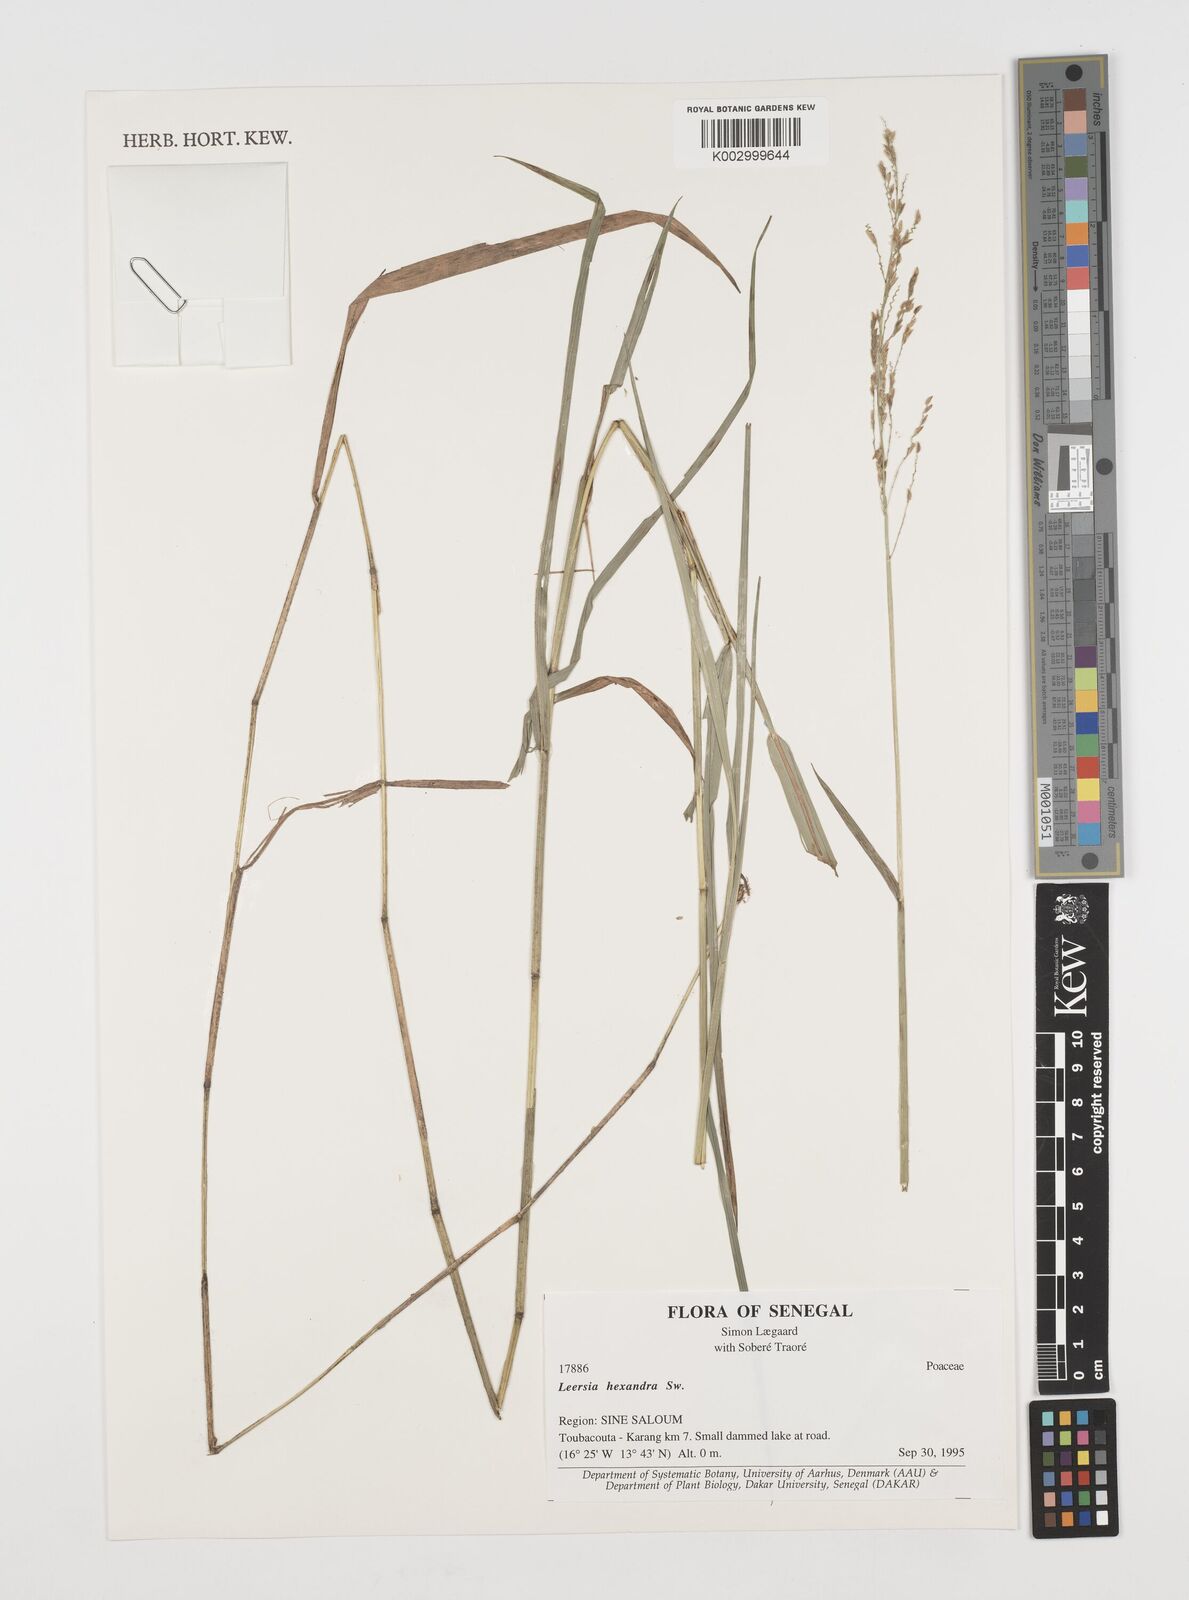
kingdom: Plantae
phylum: Tracheophyta
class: Liliopsida
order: Poales
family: Poaceae
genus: Leersia
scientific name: Leersia hexandra
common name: Southern cut grass
